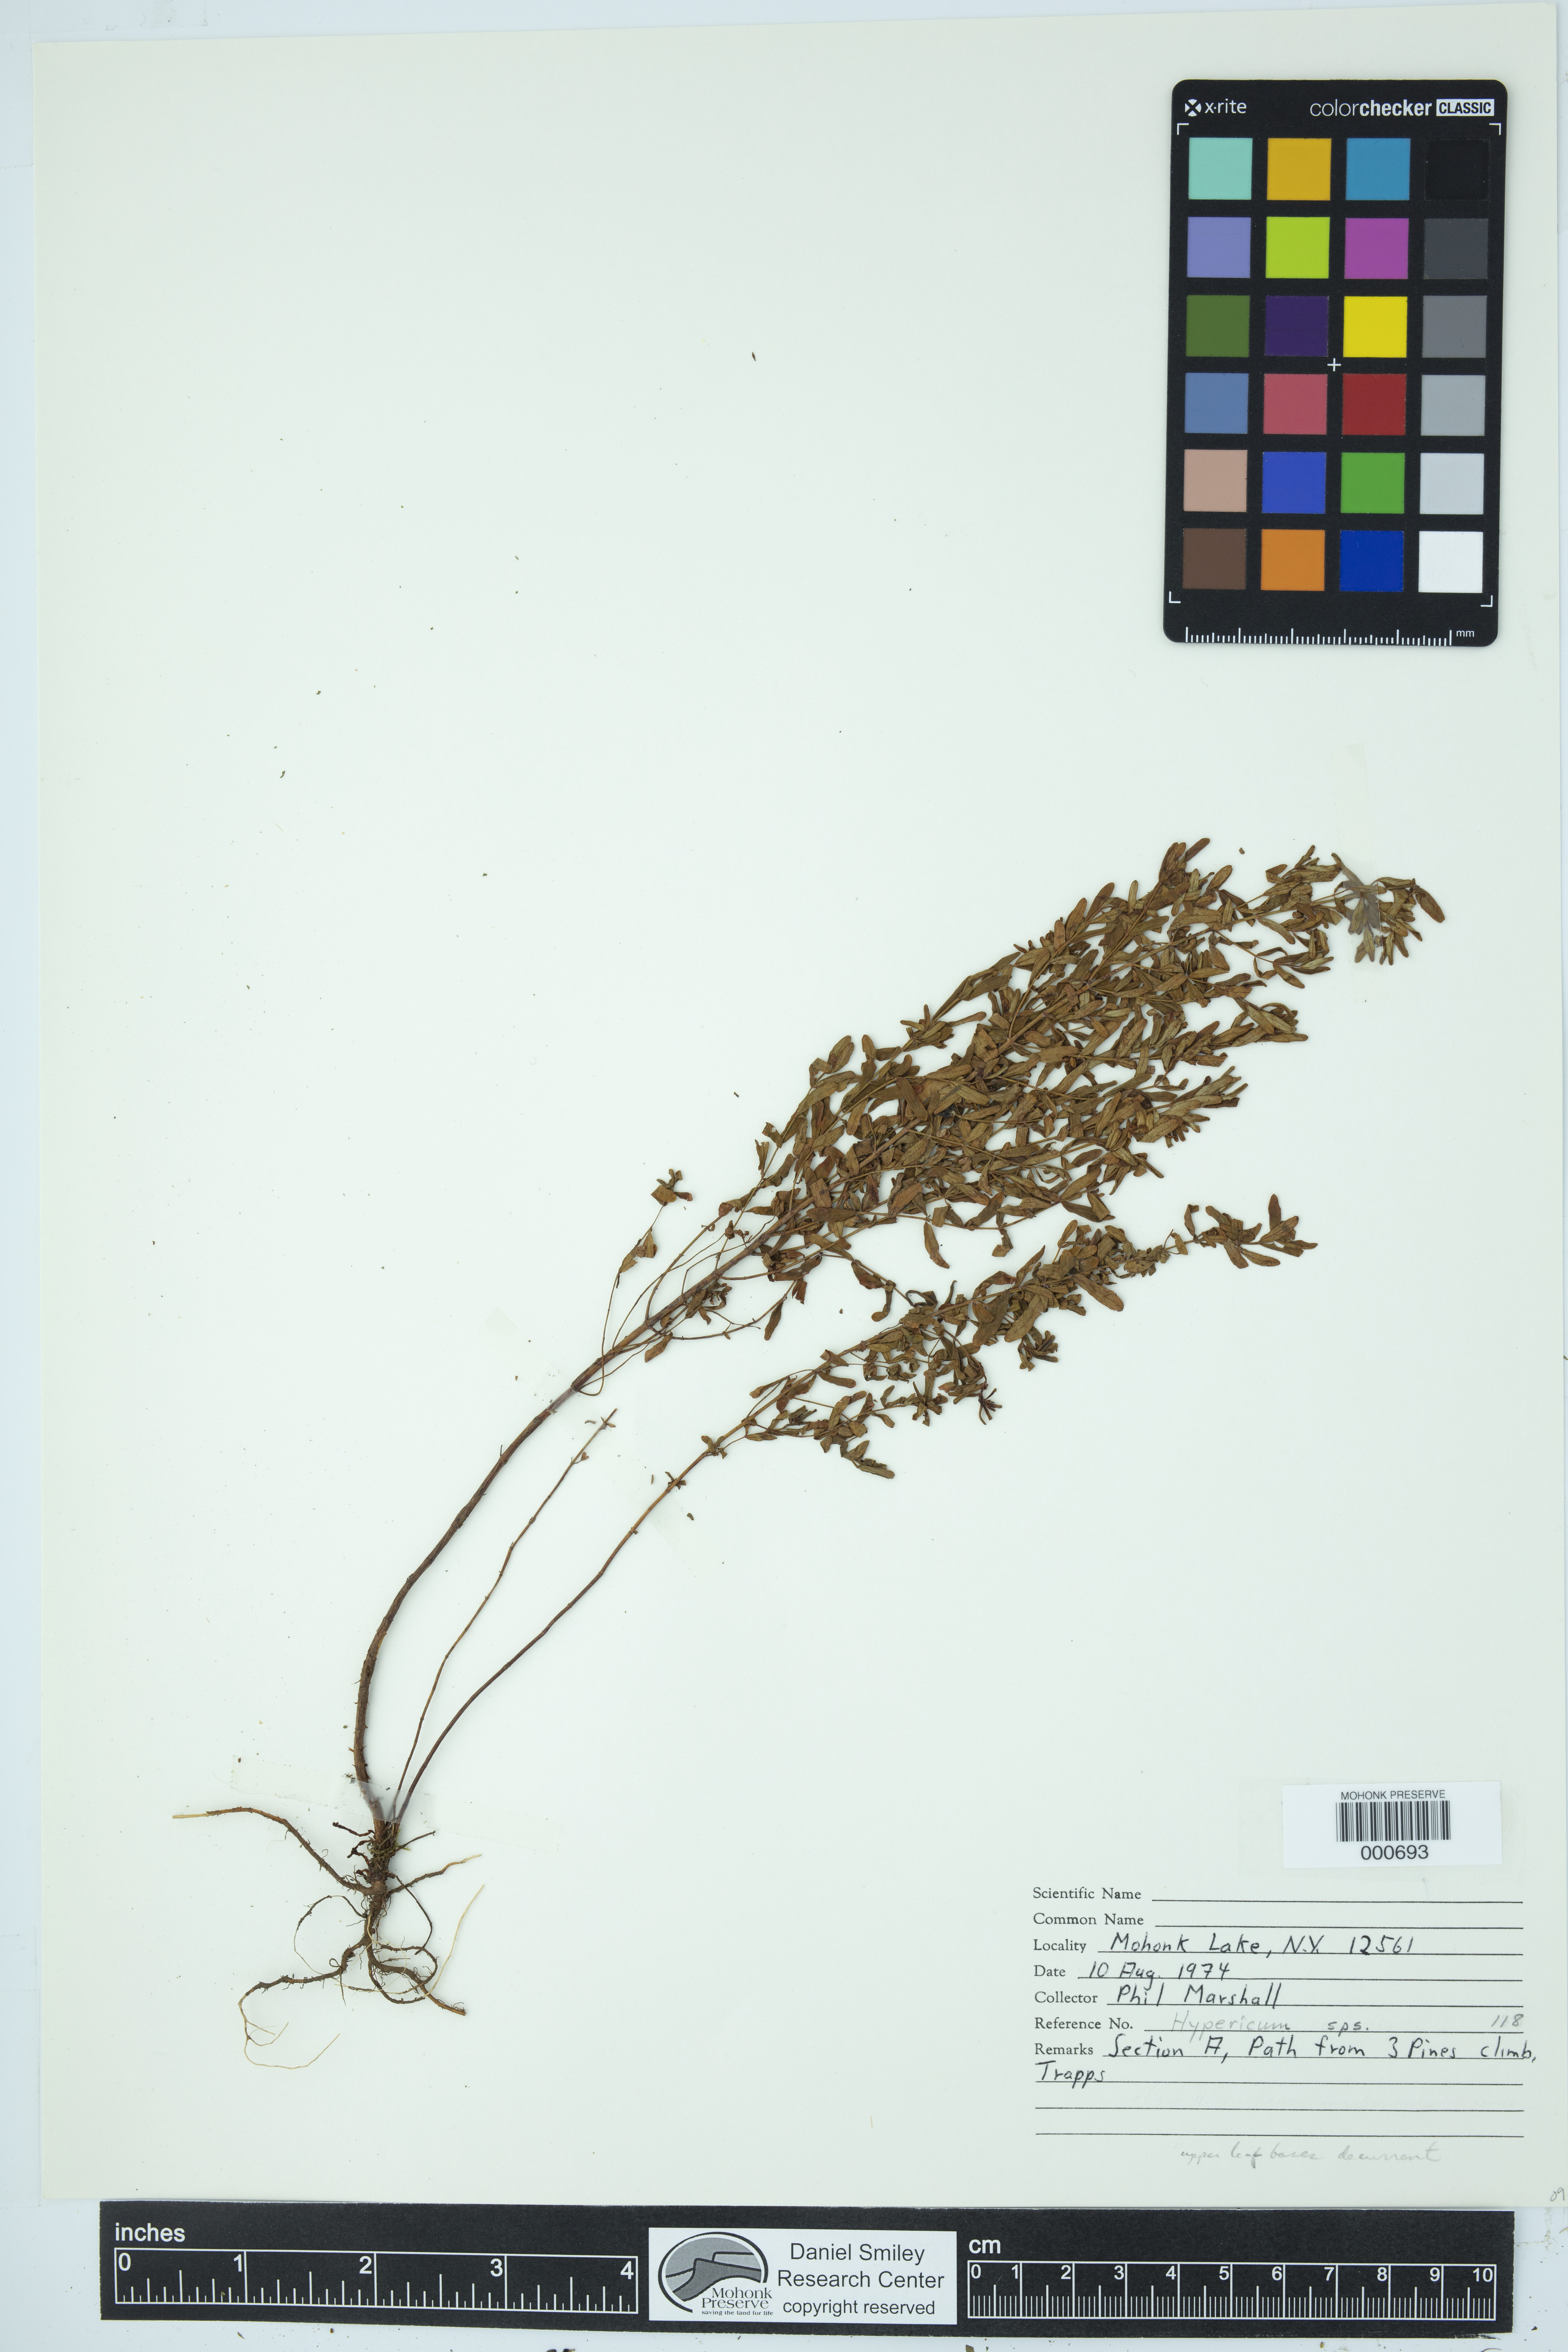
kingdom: Plantae
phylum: Tracheophyta
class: Magnoliopsida
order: Malpighiales
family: Hypericaceae
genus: Hypericum
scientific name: Hypericum
